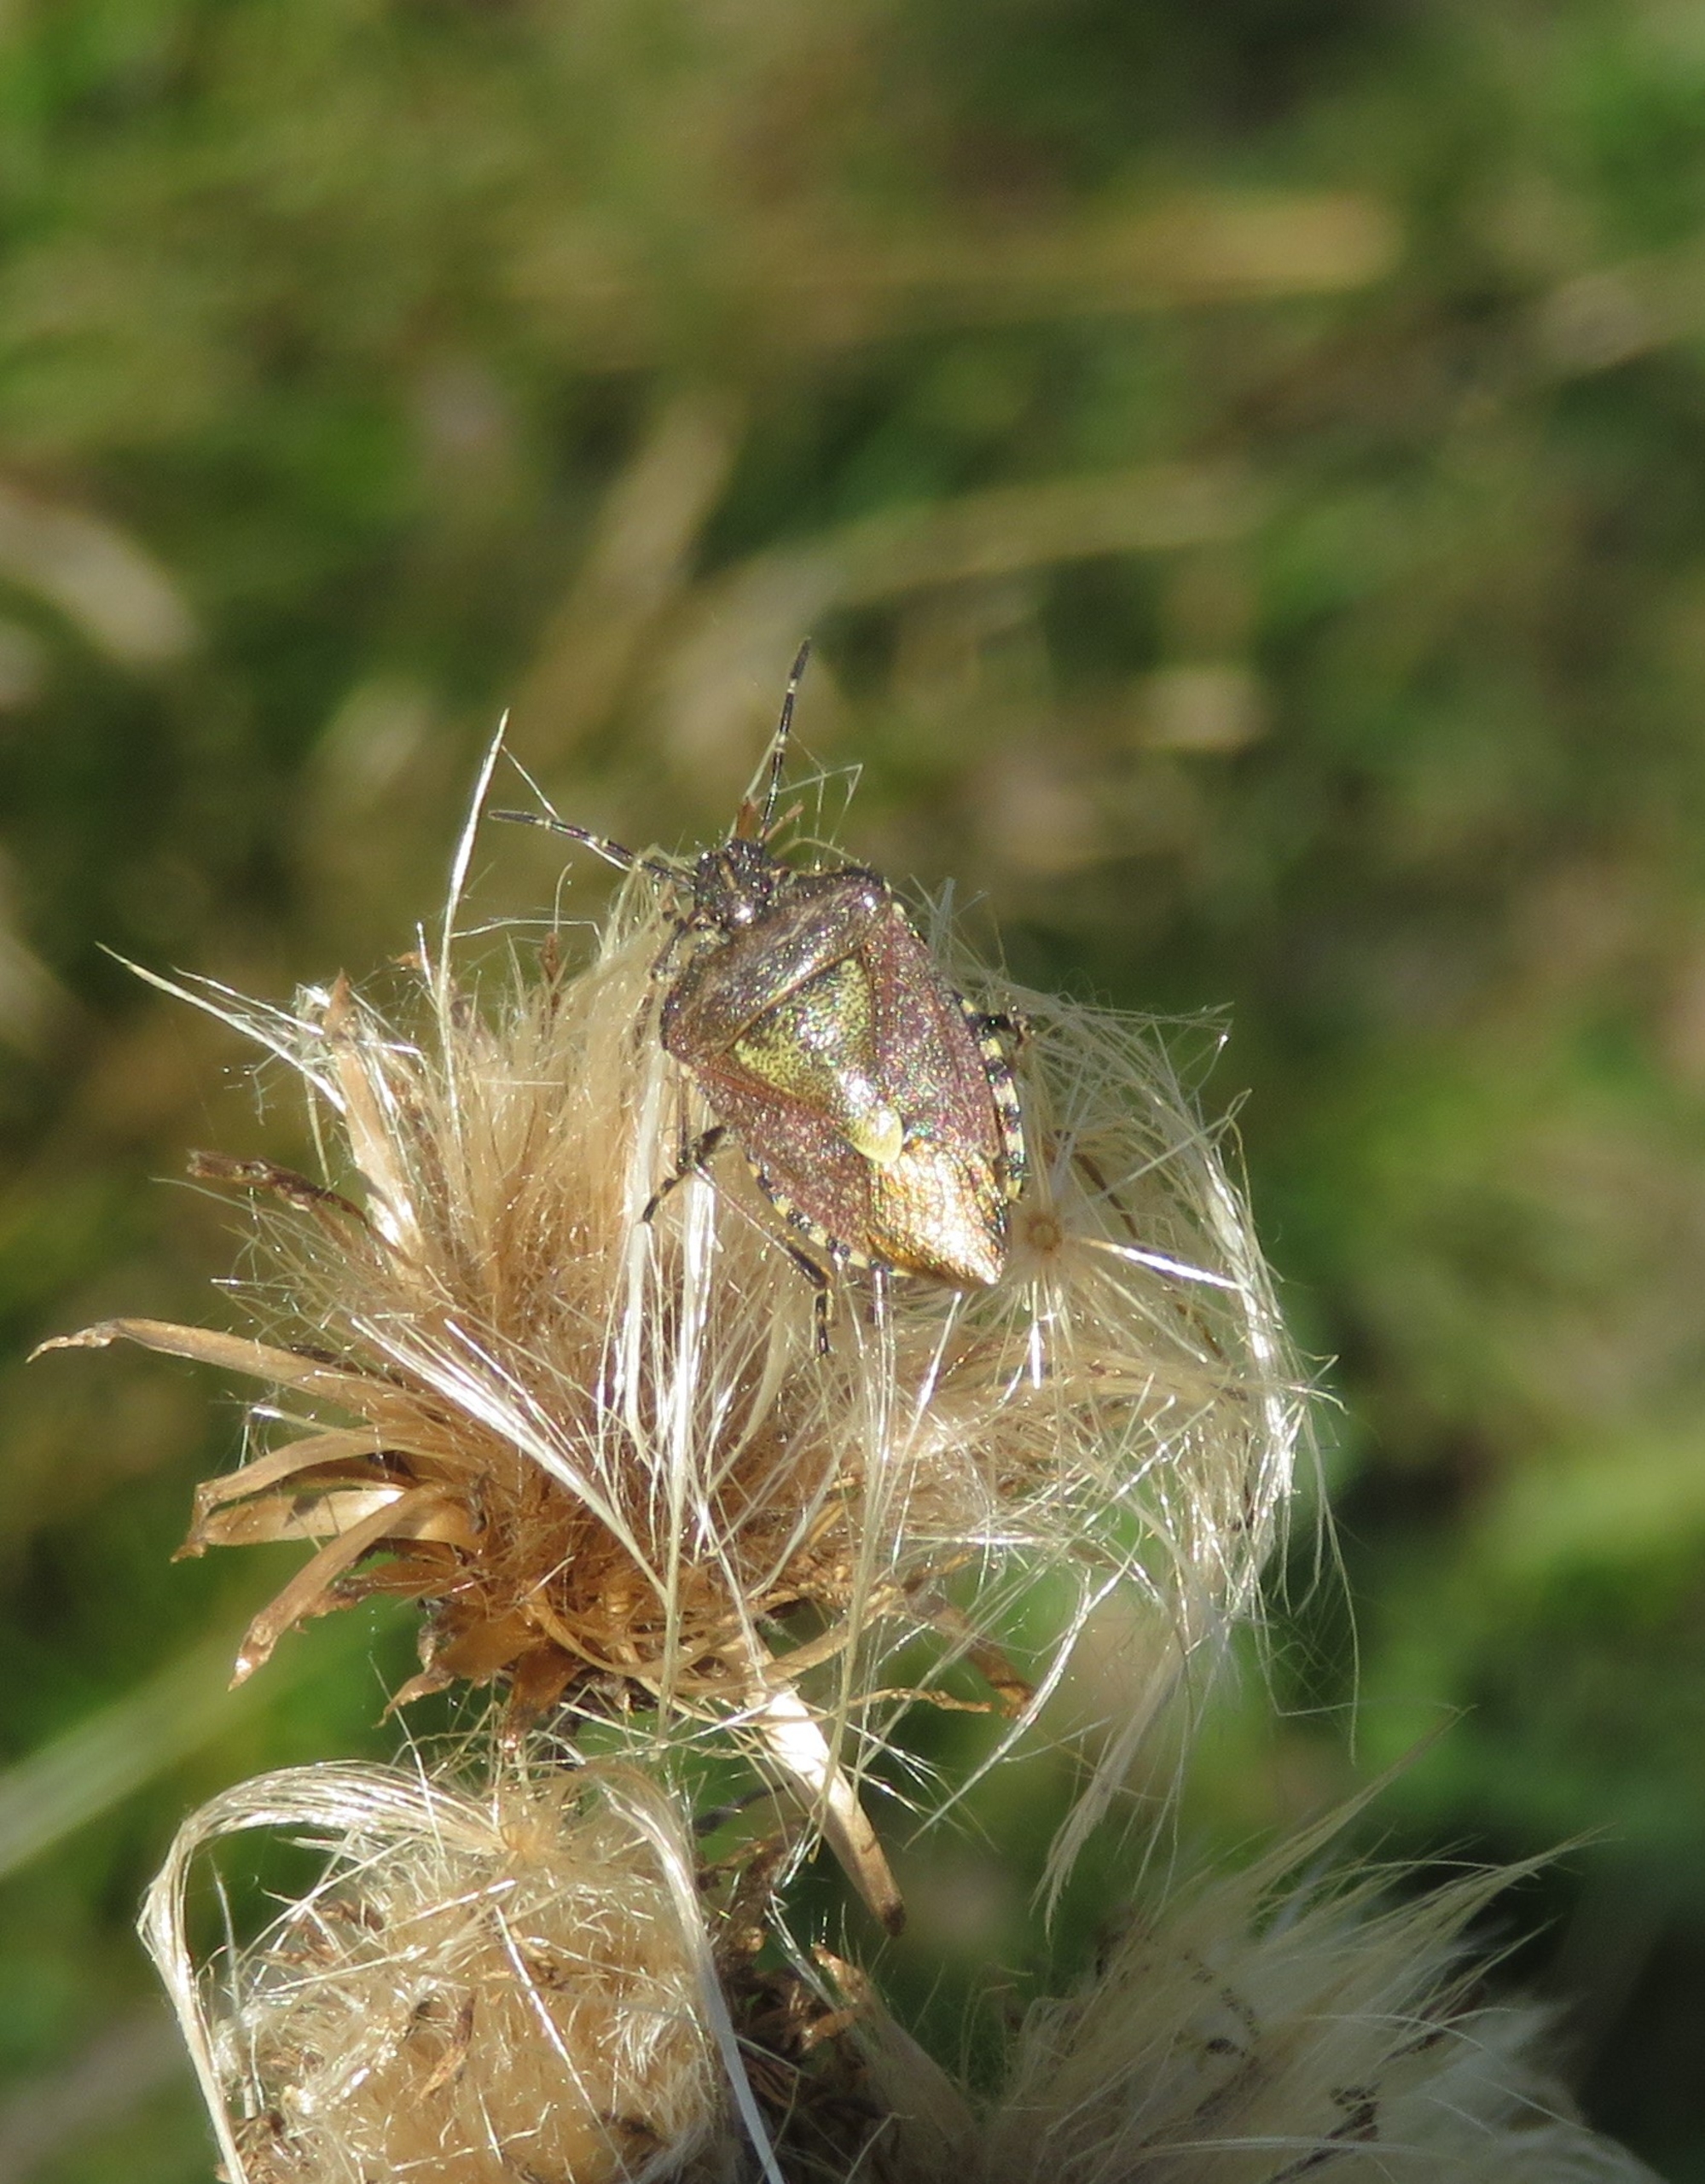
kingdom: Animalia
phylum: Arthropoda
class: Insecta
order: Hemiptera
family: Pentatomidae
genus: Dolycoris
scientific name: Dolycoris baccarum
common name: Almindelig bærtæge
